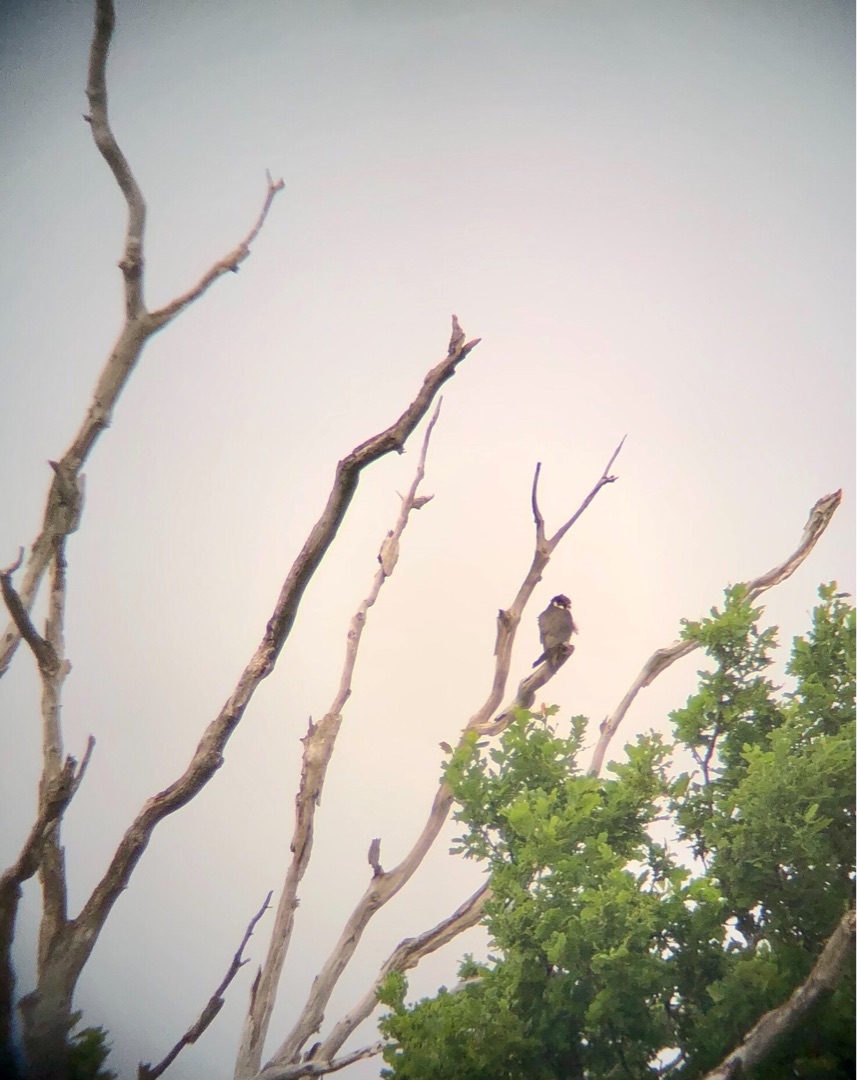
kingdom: Animalia
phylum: Chordata
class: Aves
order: Falconiformes
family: Falconidae
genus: Falco
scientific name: Falco subbuteo
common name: Lærkefalk
